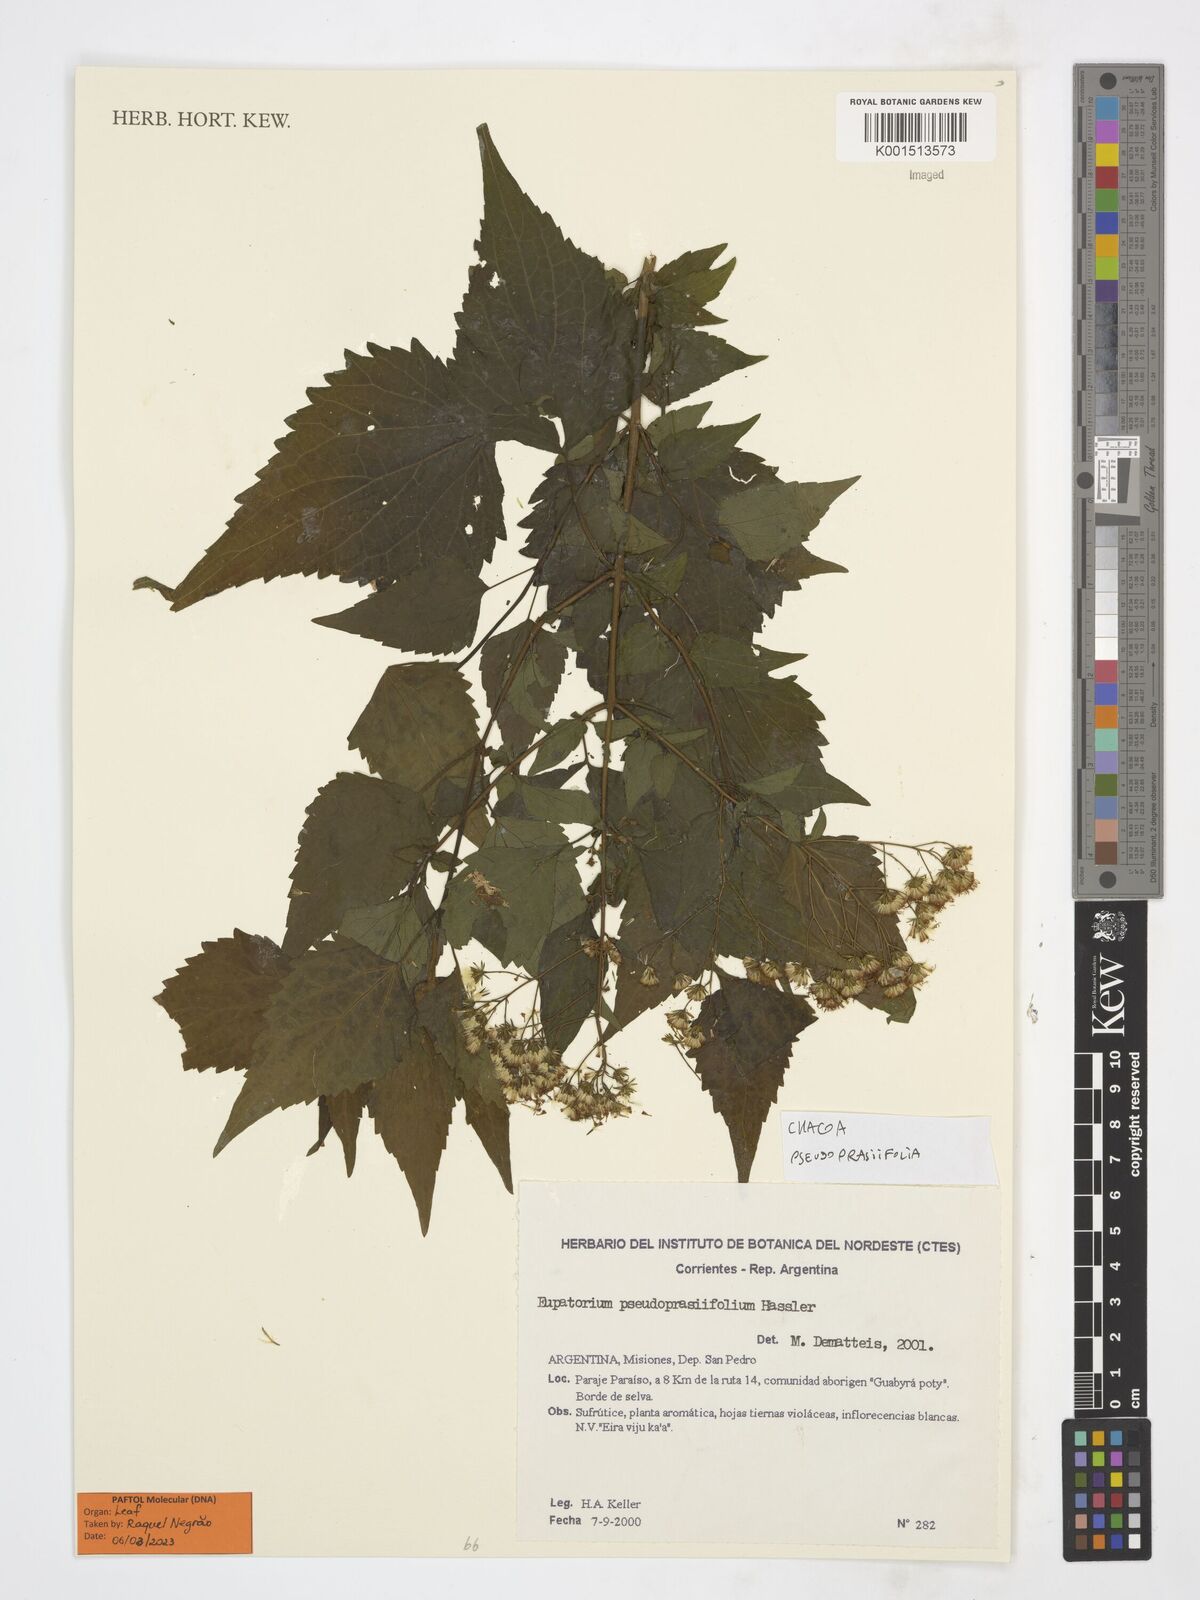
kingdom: Plantae
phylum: Tracheophyta
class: Magnoliopsida
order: Asterales
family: Asteraceae
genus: Chacoa
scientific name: Chacoa pseudoprasiifolia
